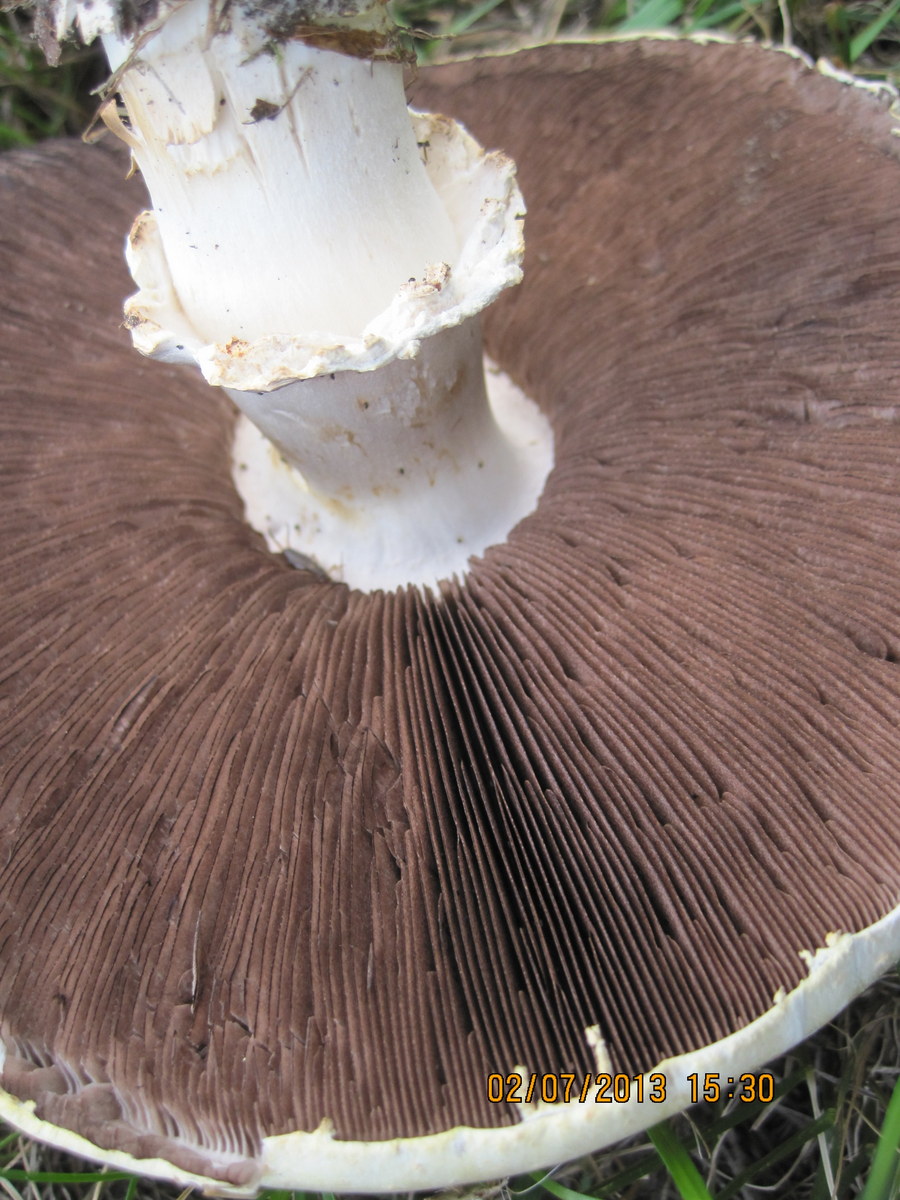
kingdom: Fungi
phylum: Basidiomycota
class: Agaricomycetes
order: Agaricales
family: Agaricaceae
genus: Agaricus
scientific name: Agaricus arvensis
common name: ager-champignon
